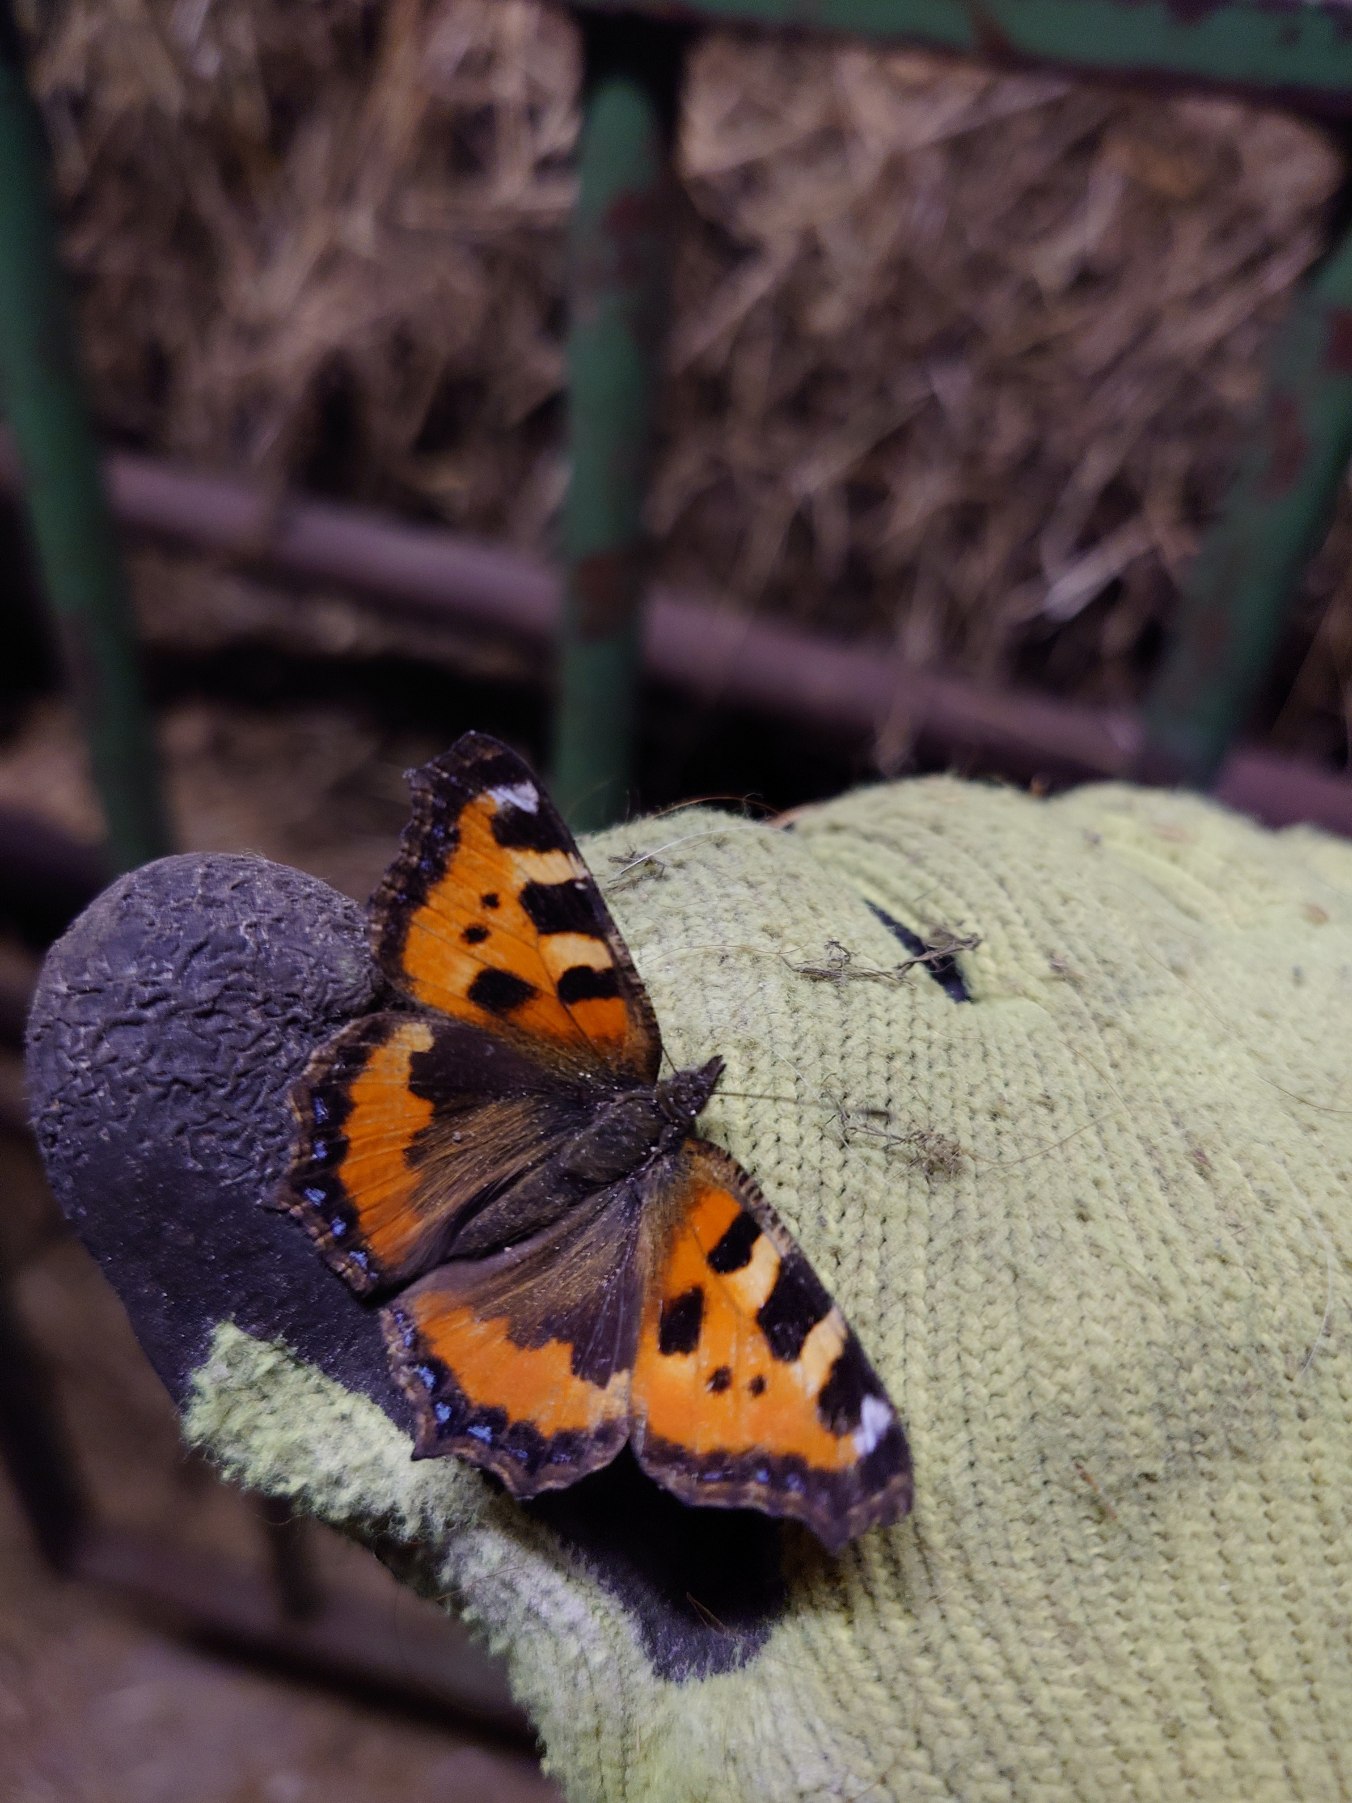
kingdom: Animalia
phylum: Arthropoda
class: Insecta
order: Lepidoptera
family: Nymphalidae
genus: Aglais
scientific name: Aglais urticae
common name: Nældens takvinge
